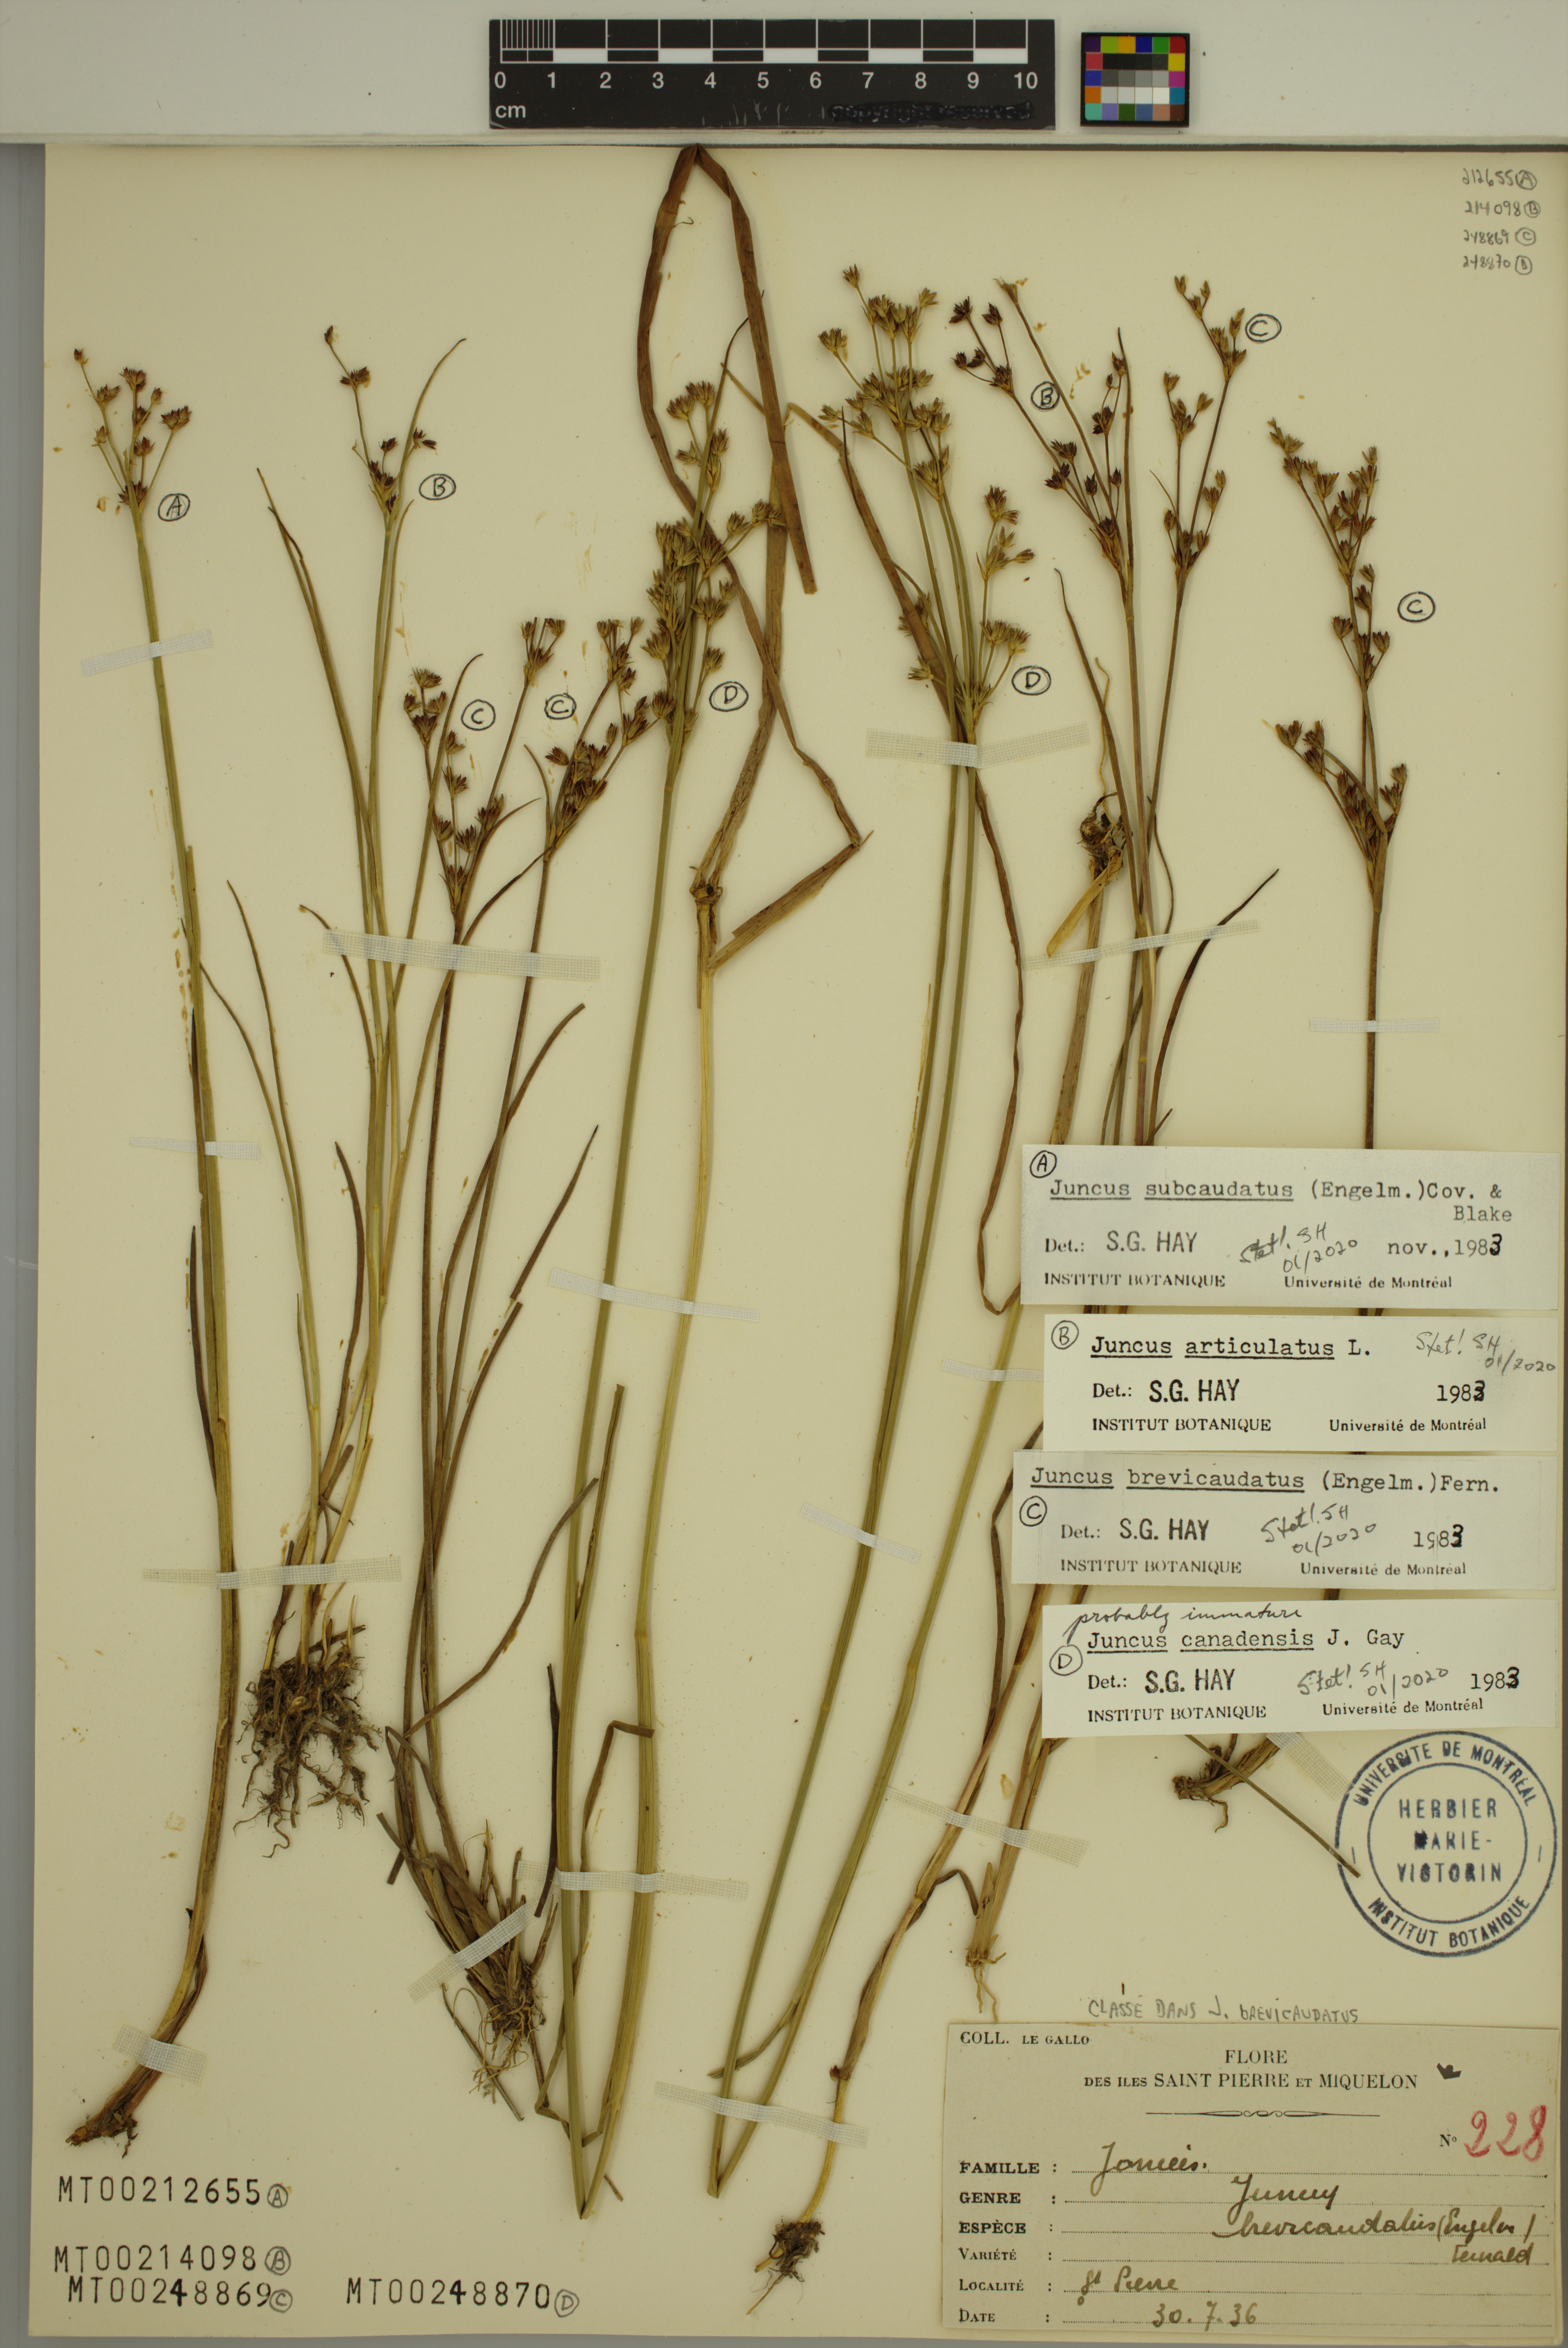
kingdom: Plantae
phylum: Tracheophyta
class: Liliopsida
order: Poales
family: Juncaceae
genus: Juncus
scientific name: Juncus subcaudatus
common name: Engelmann's rush
